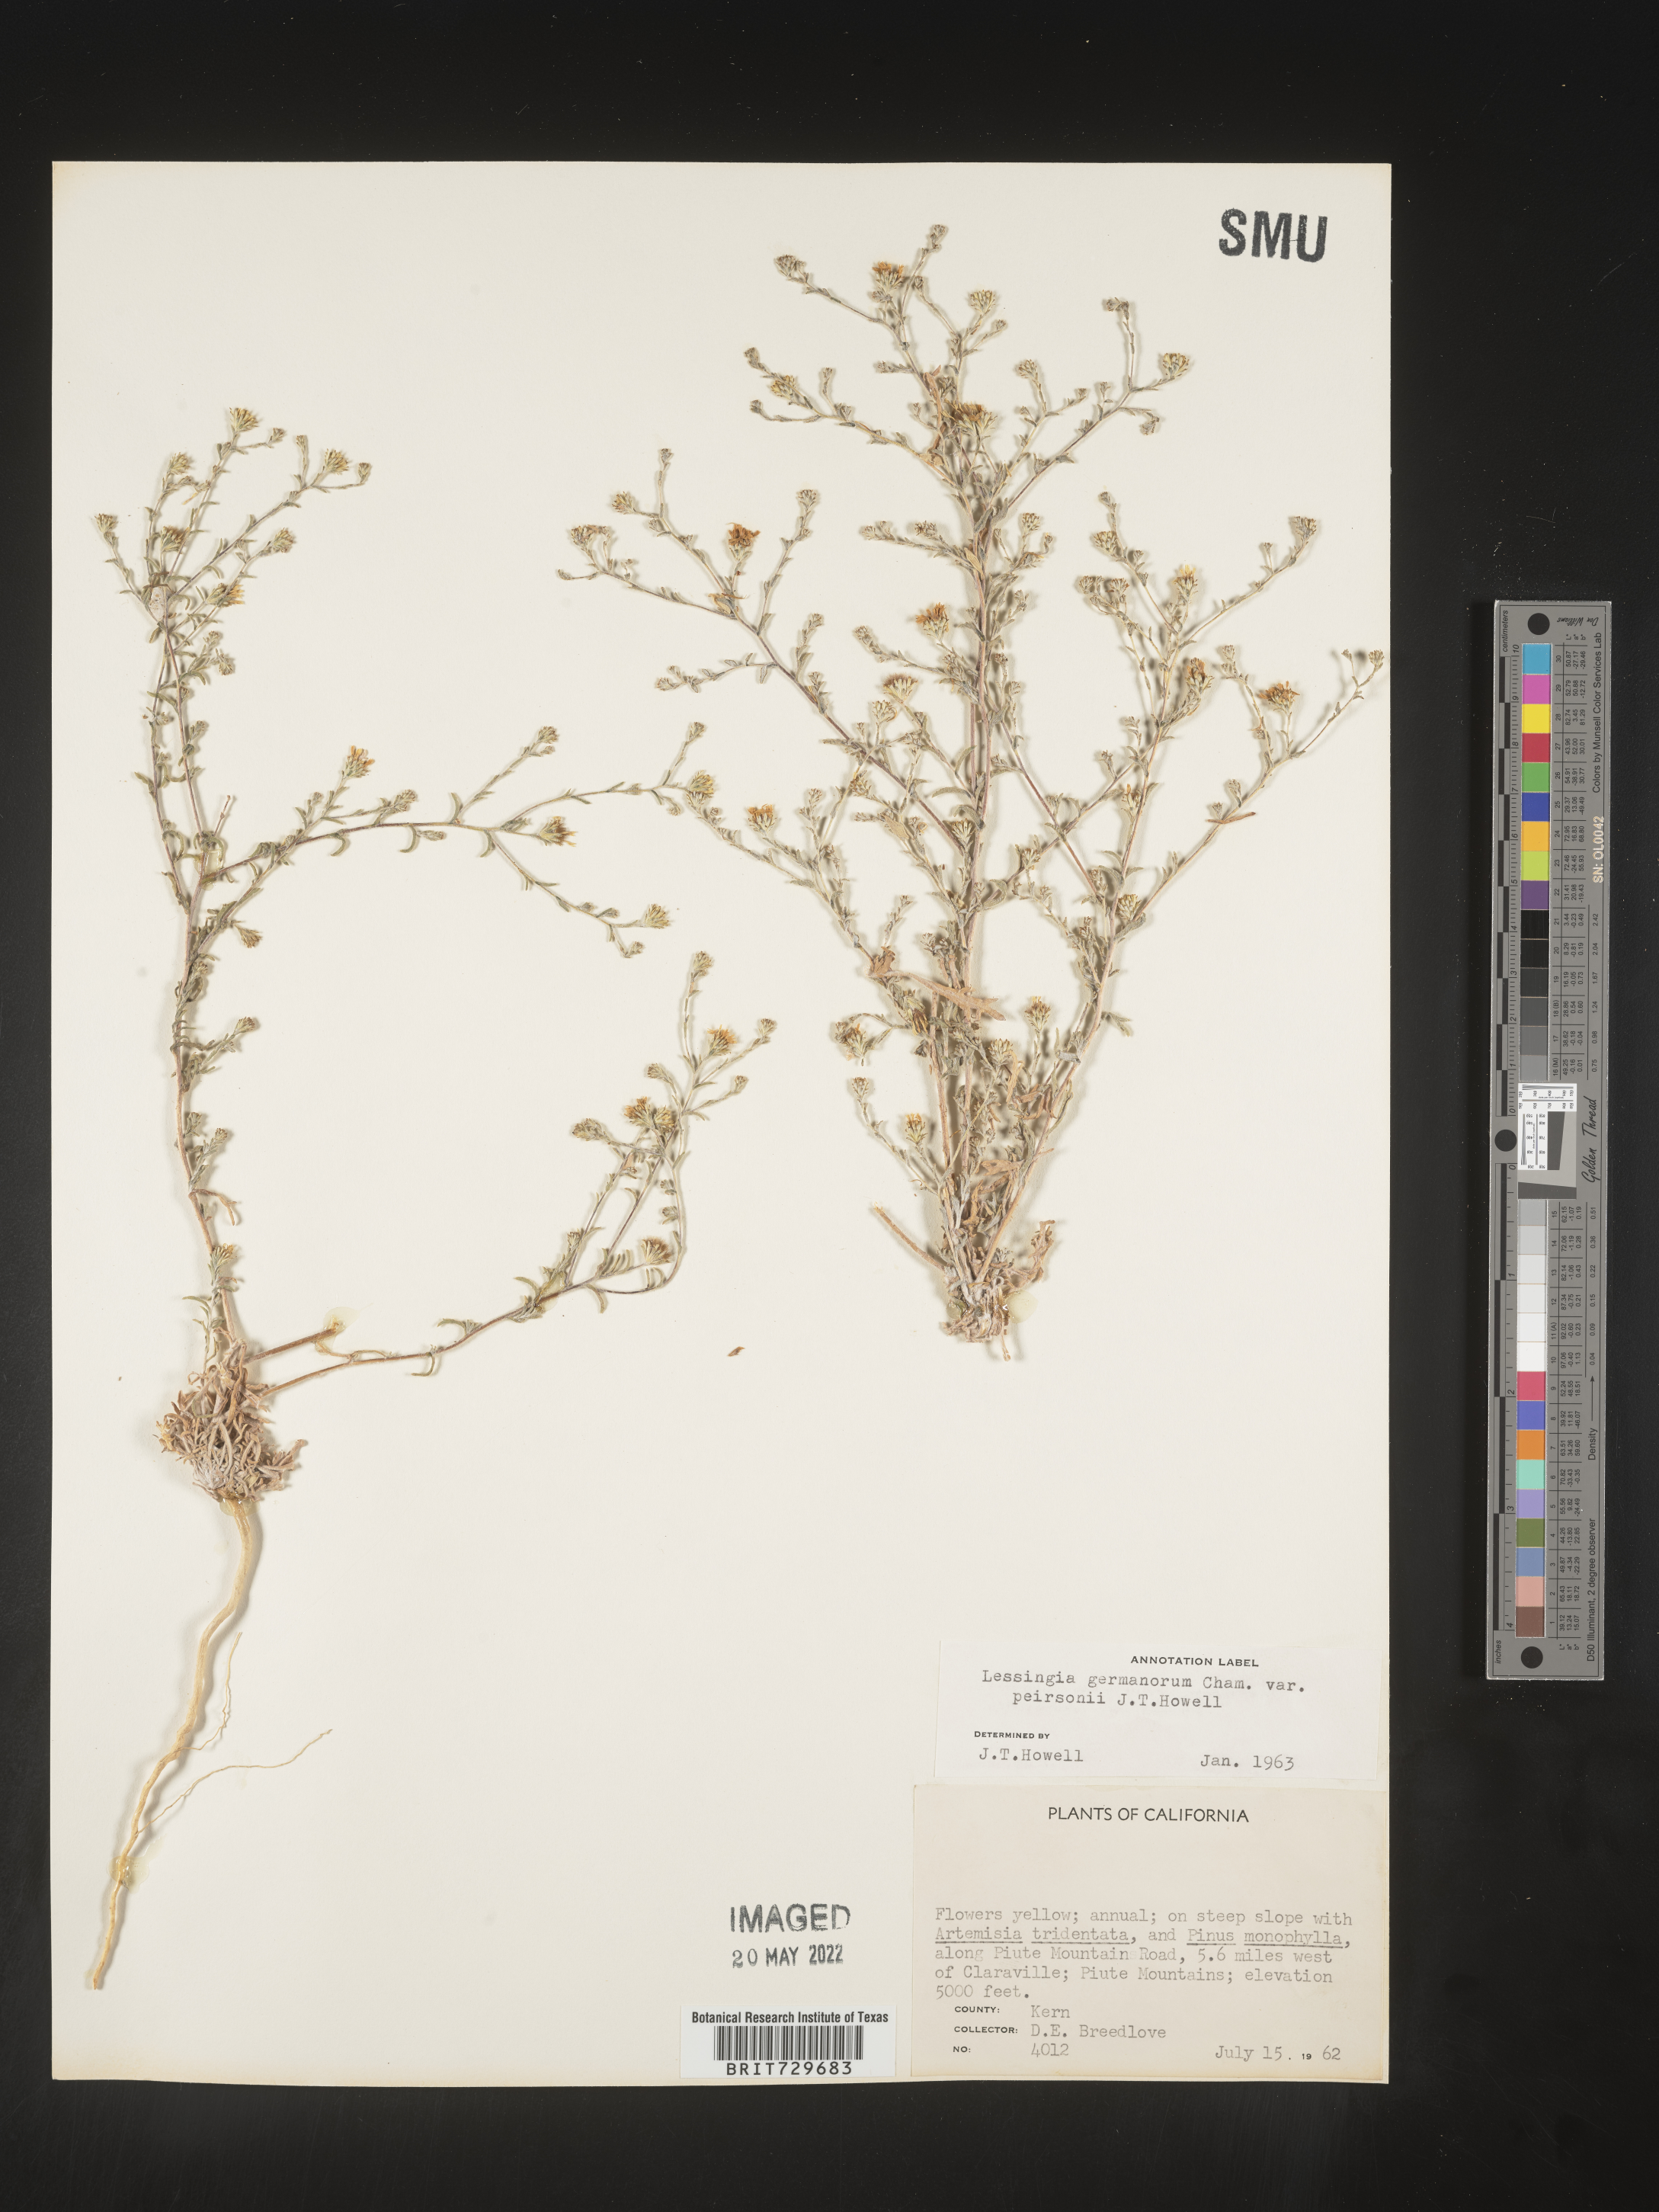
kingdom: Plantae
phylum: Tracheophyta
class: Magnoliopsida
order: Asterales
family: Asteraceae
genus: Lessingia
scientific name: Lessingia
